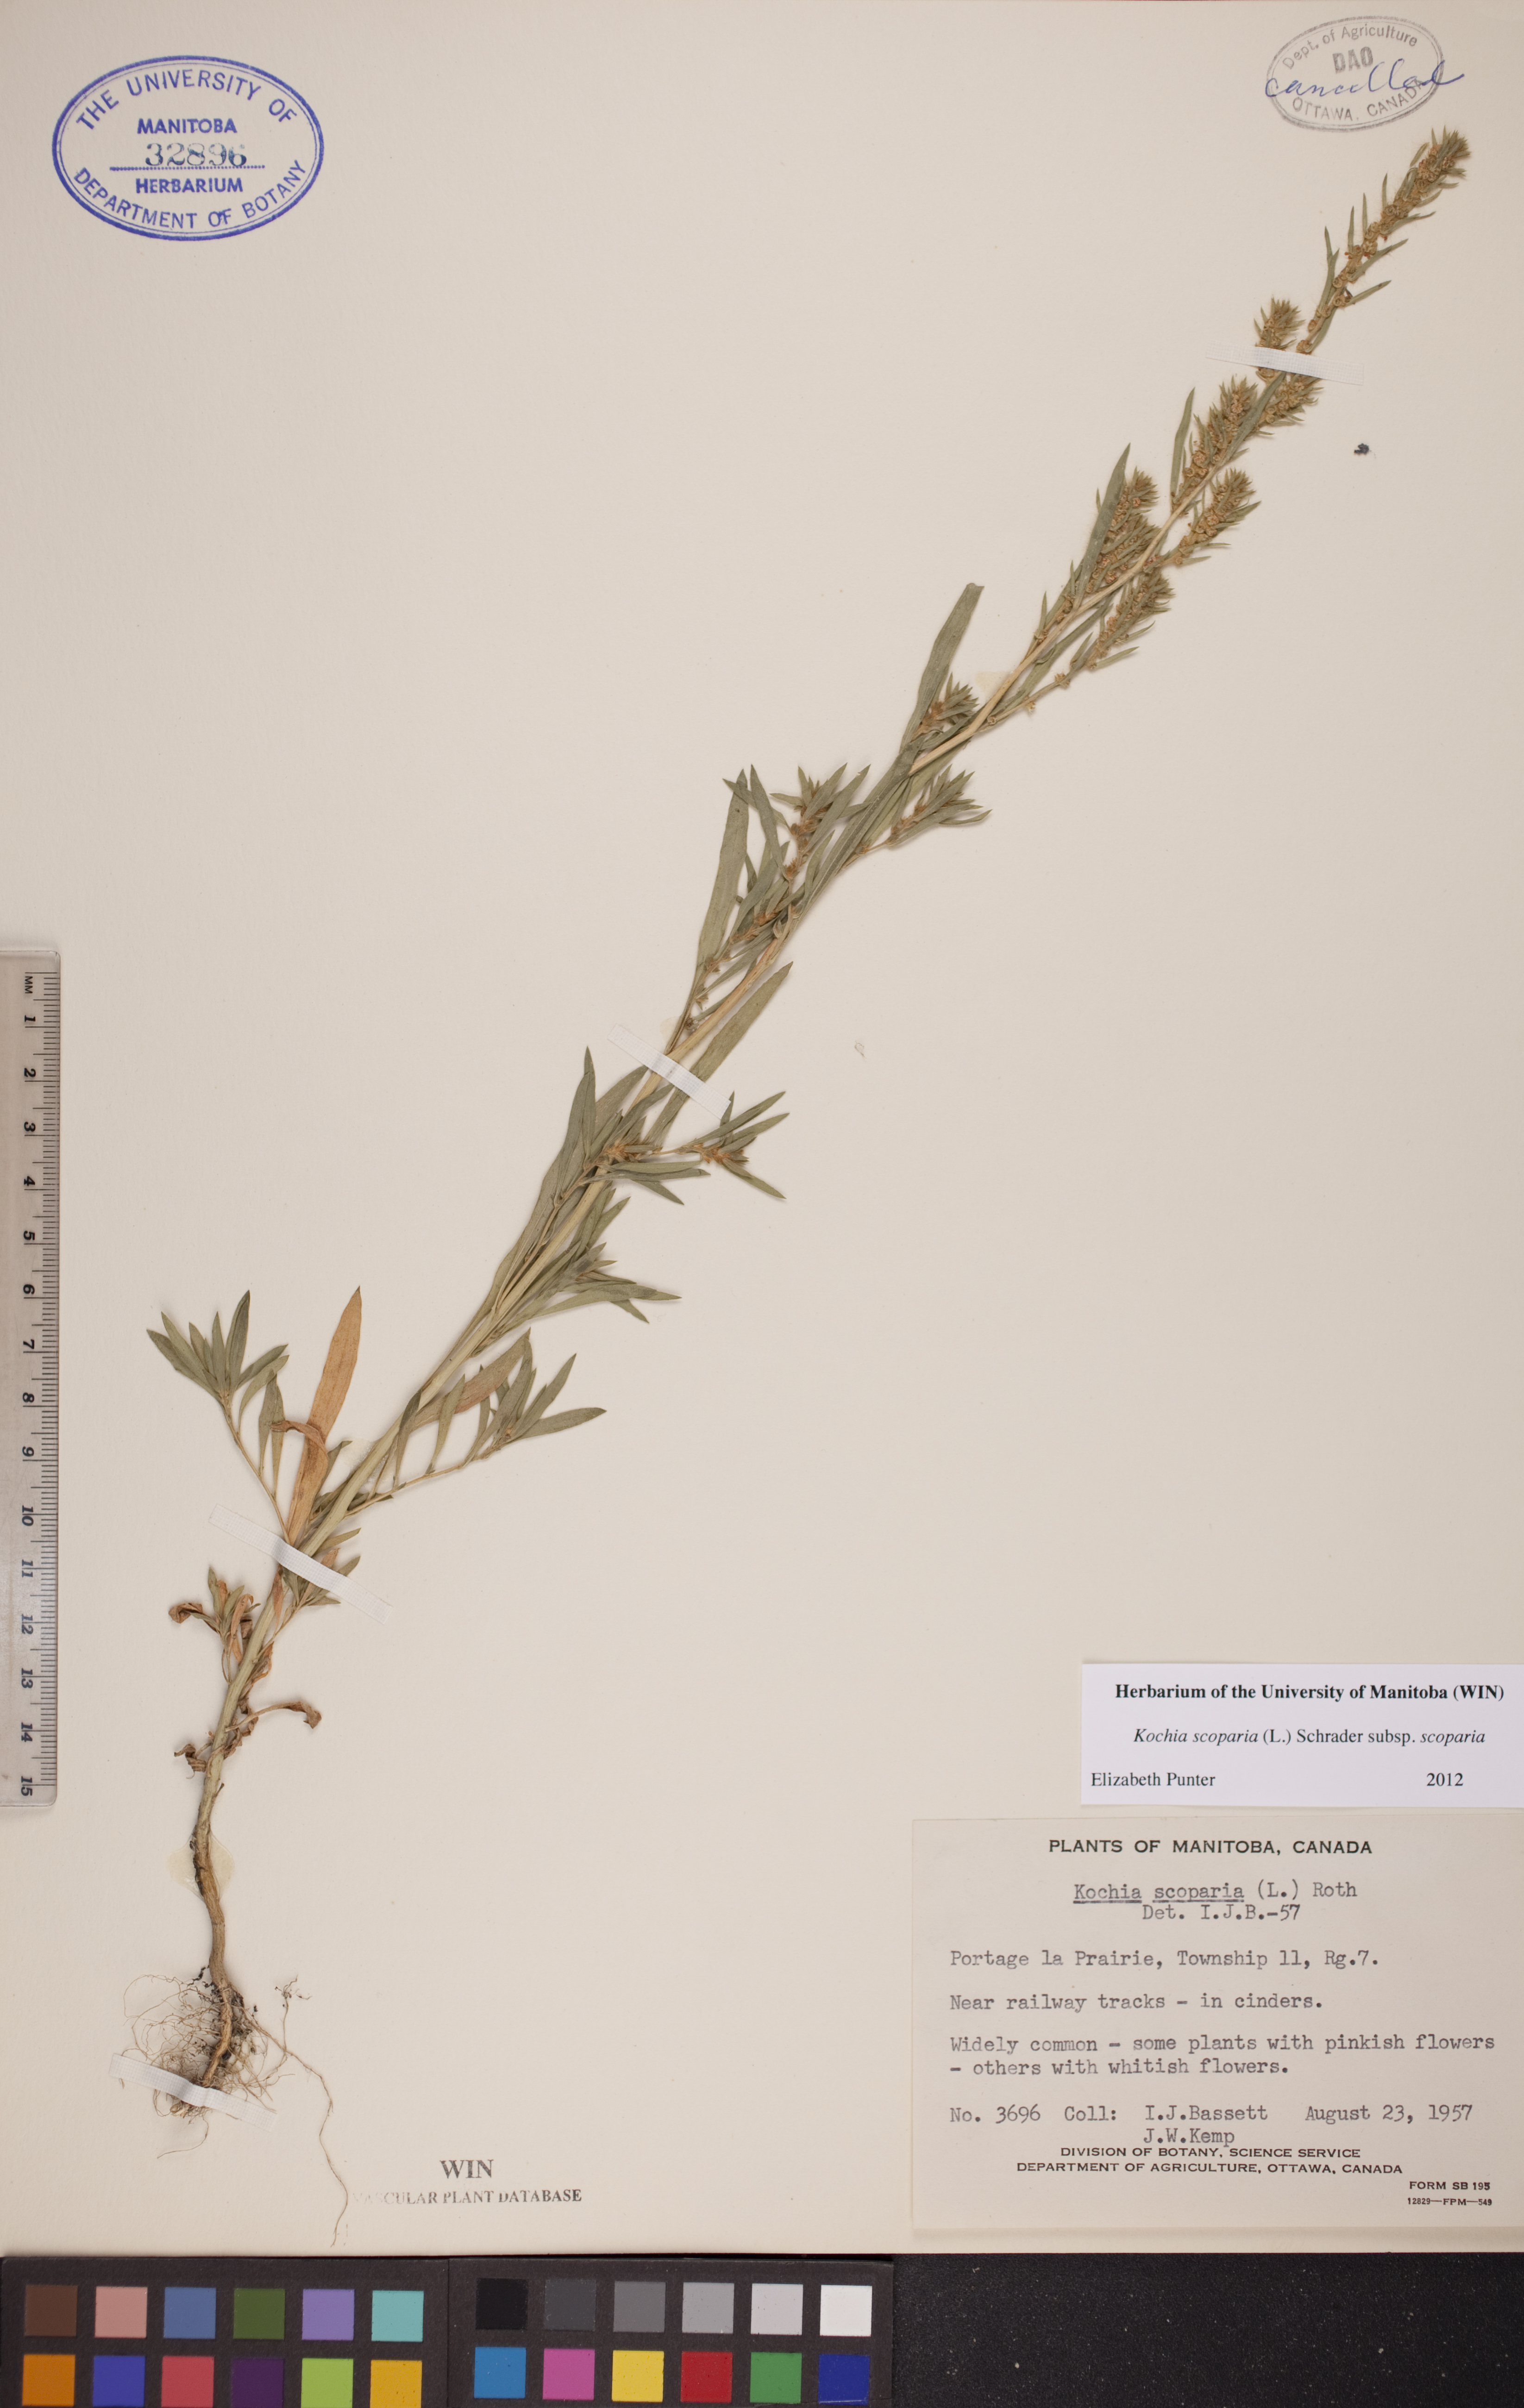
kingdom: Plantae
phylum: Tracheophyta
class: Magnoliopsida
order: Caryophyllales
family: Amaranthaceae
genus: Bassia
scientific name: Bassia scoparia
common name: Belvedere
